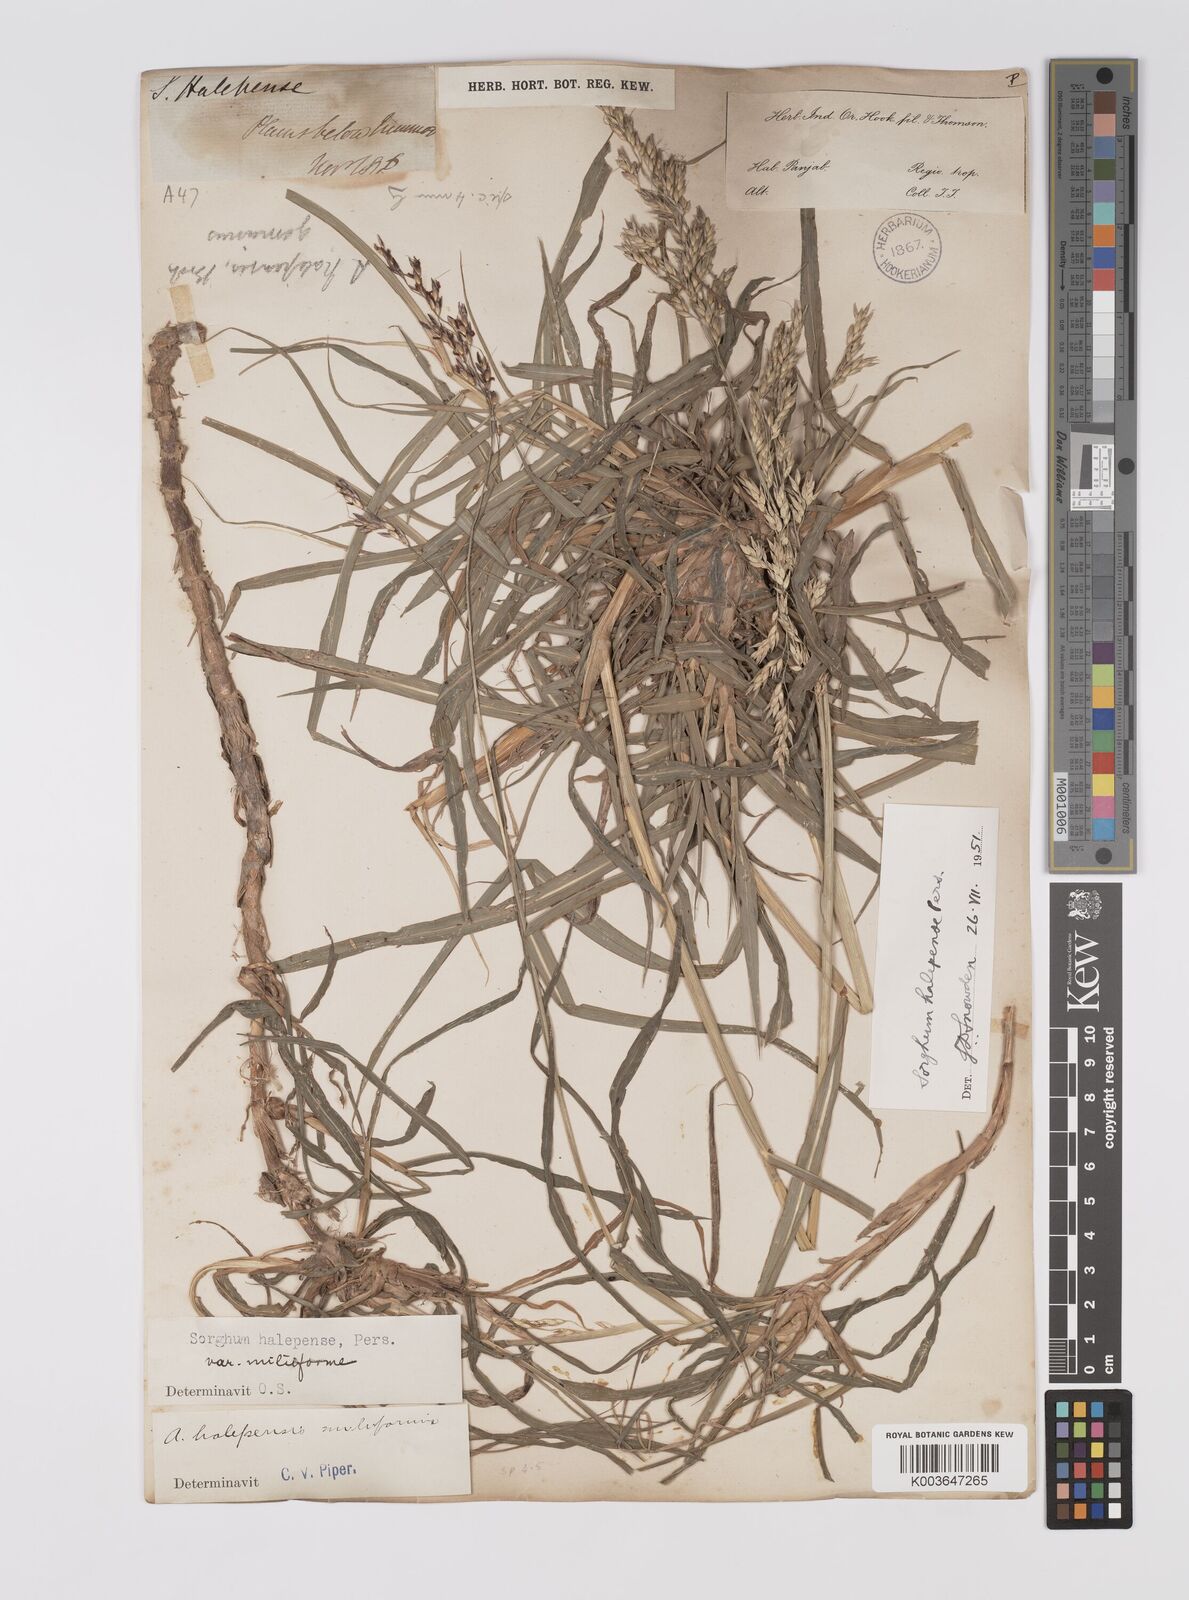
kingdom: Plantae
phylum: Tracheophyta
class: Liliopsida
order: Poales
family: Poaceae
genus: Sorghum
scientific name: Sorghum halepense
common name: Johnson-grass
